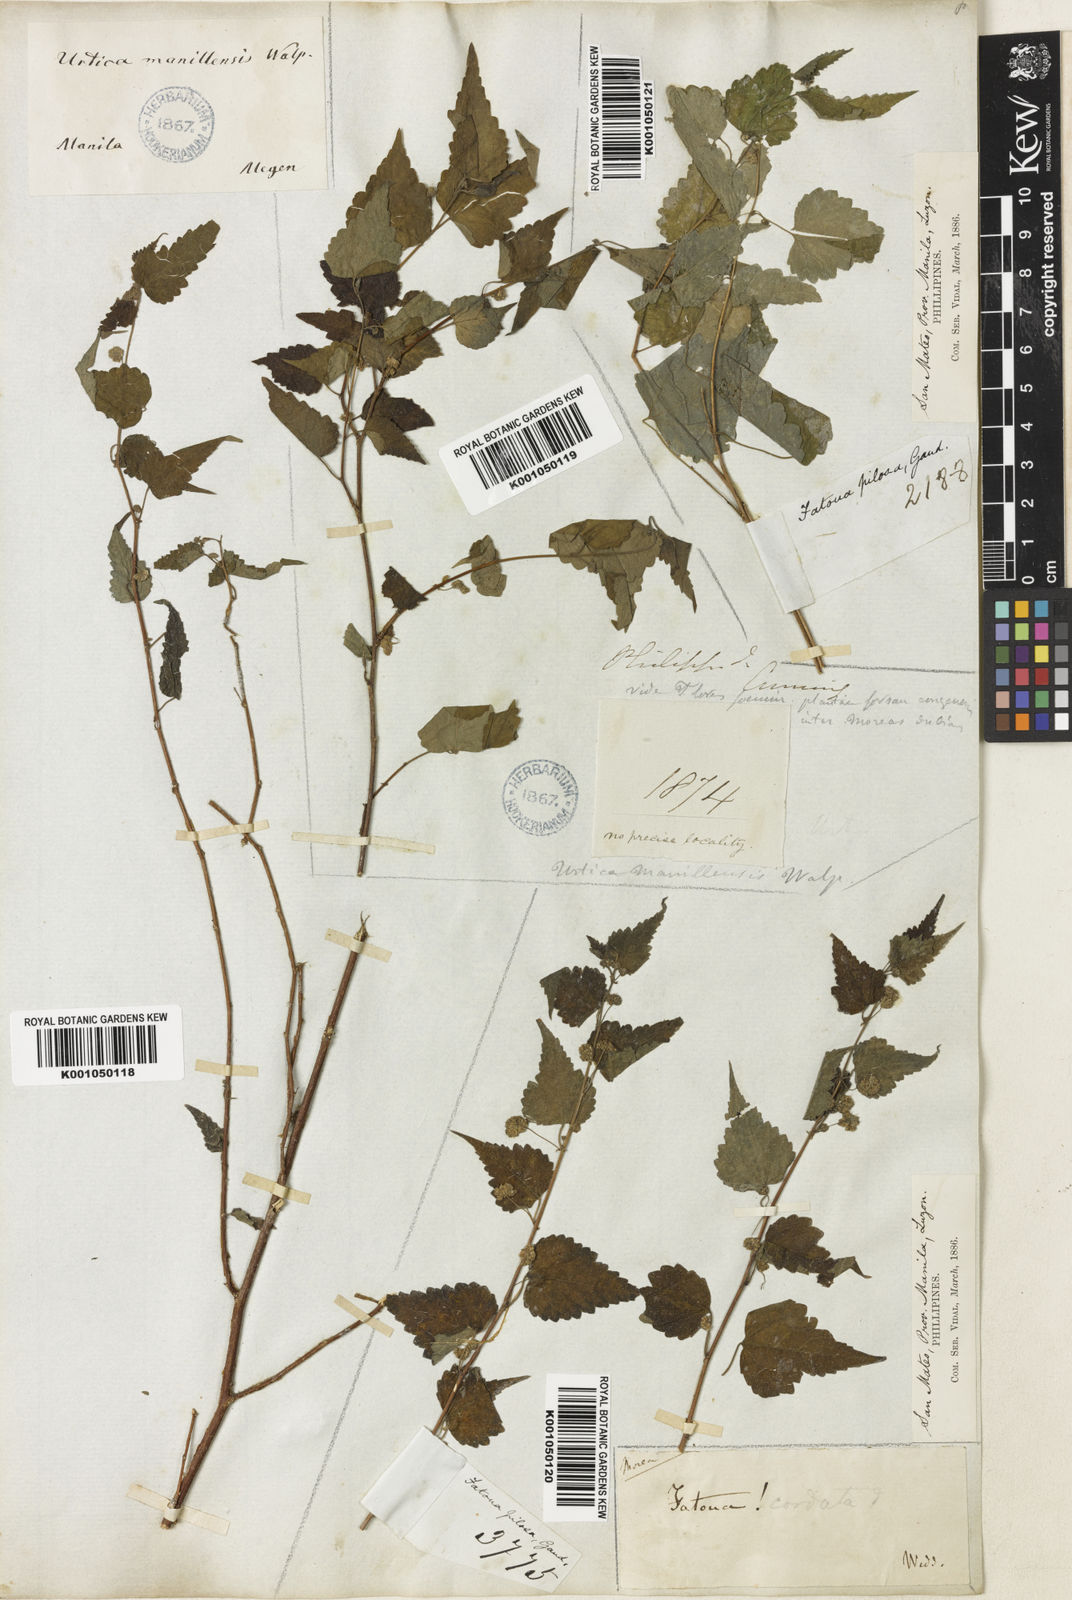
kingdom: Plantae
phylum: Tracheophyta
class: Magnoliopsida
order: Rosales
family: Moraceae
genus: Fatoua
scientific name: Fatoua villosa
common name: Hairy crabweed
